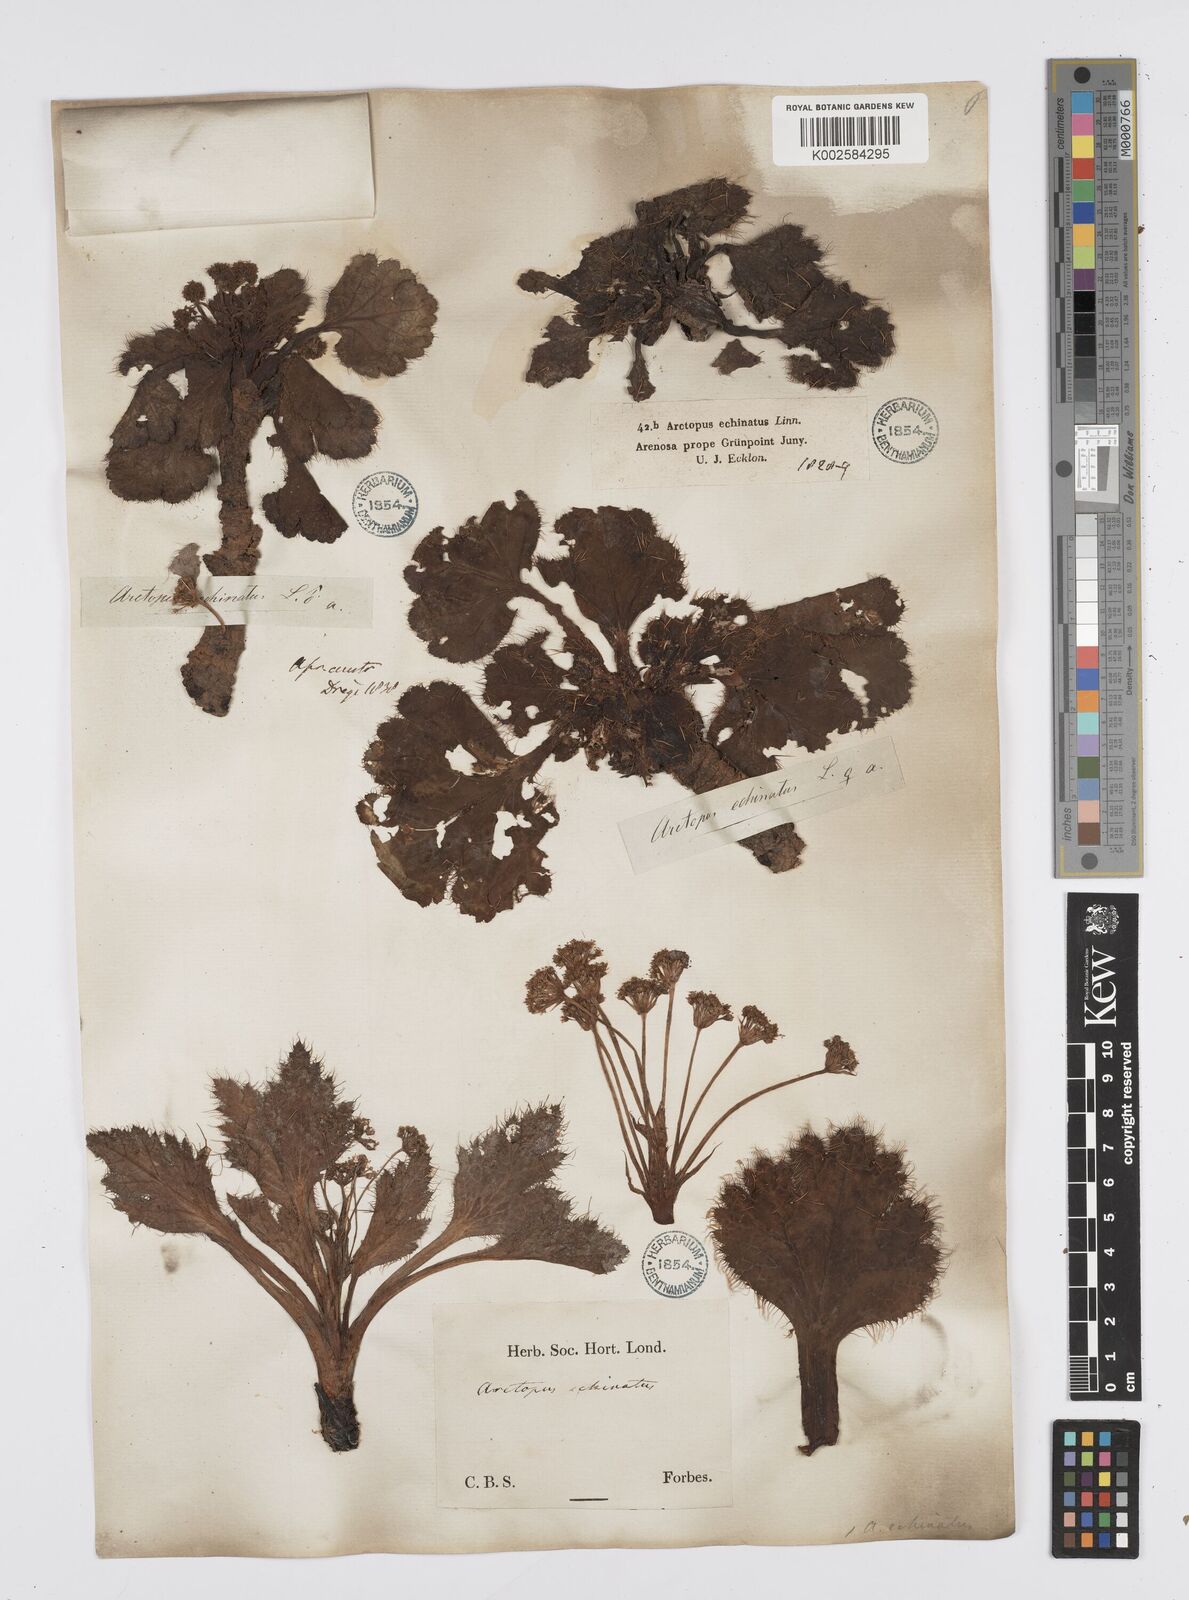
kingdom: Plantae
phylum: Tracheophyta
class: Magnoliopsida
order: Apiales
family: Apiaceae
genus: Arctopus
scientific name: Arctopus echinatus
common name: Platdoring
